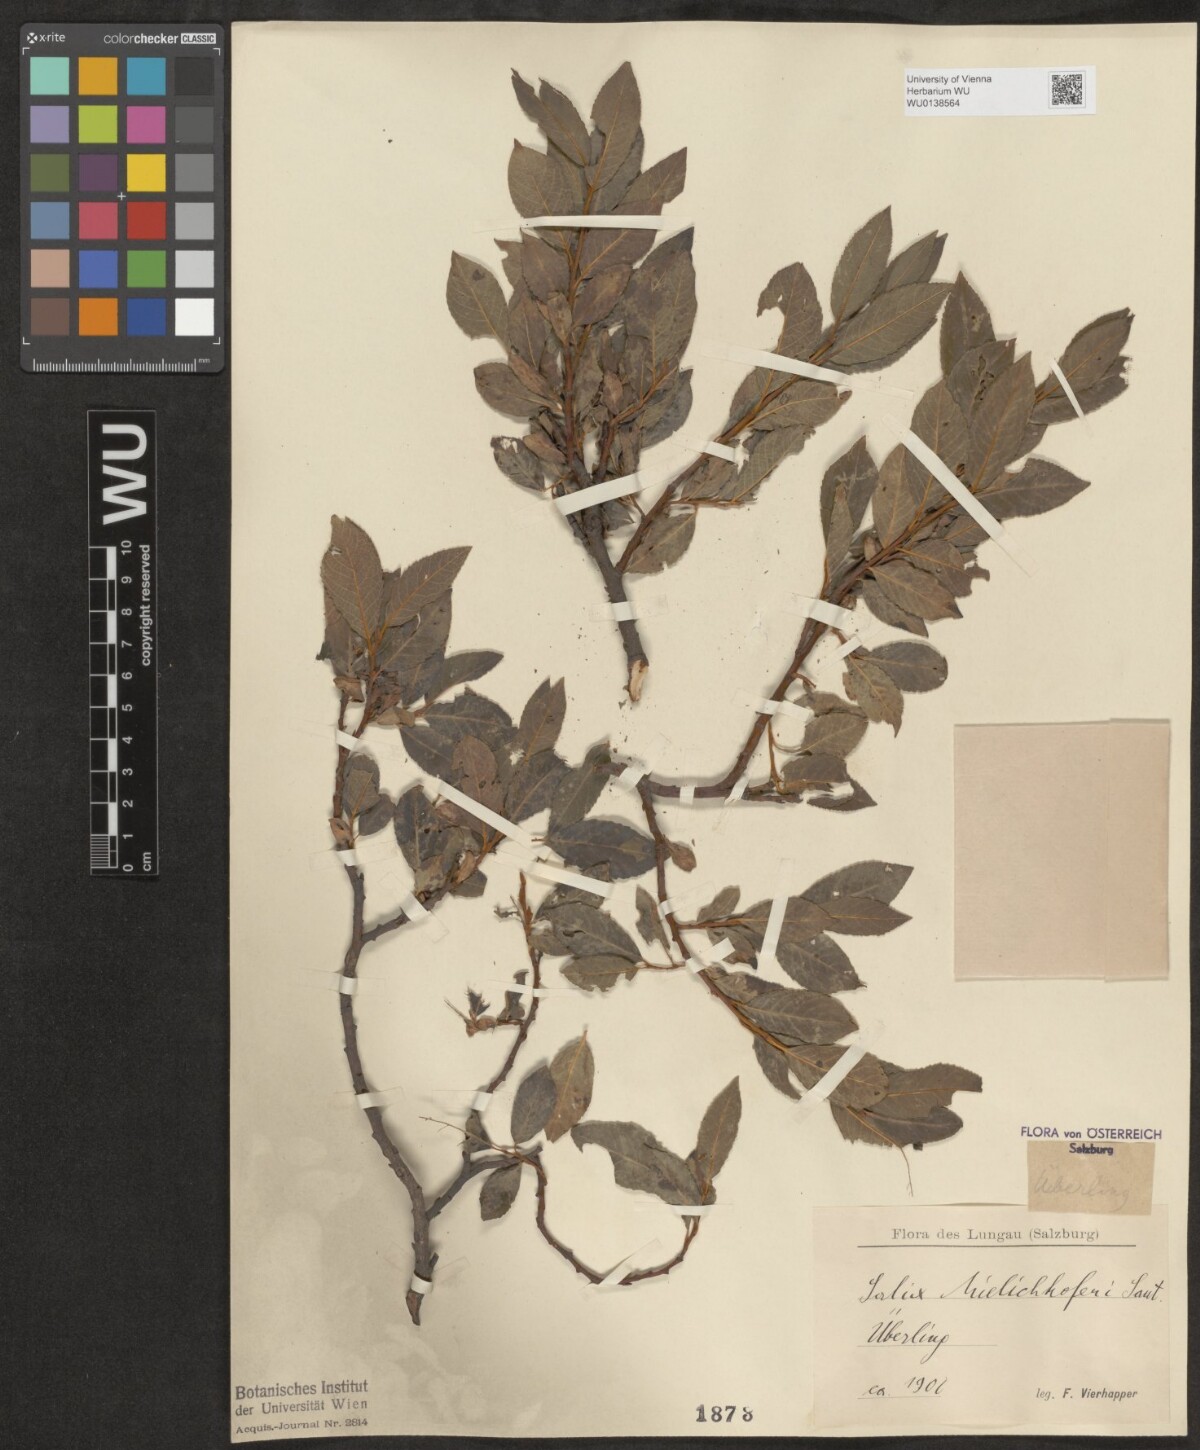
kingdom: Plantae
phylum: Tracheophyta
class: Magnoliopsida
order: Malpighiales
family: Salicaceae
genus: Salix
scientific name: Salix mielichhoferi
